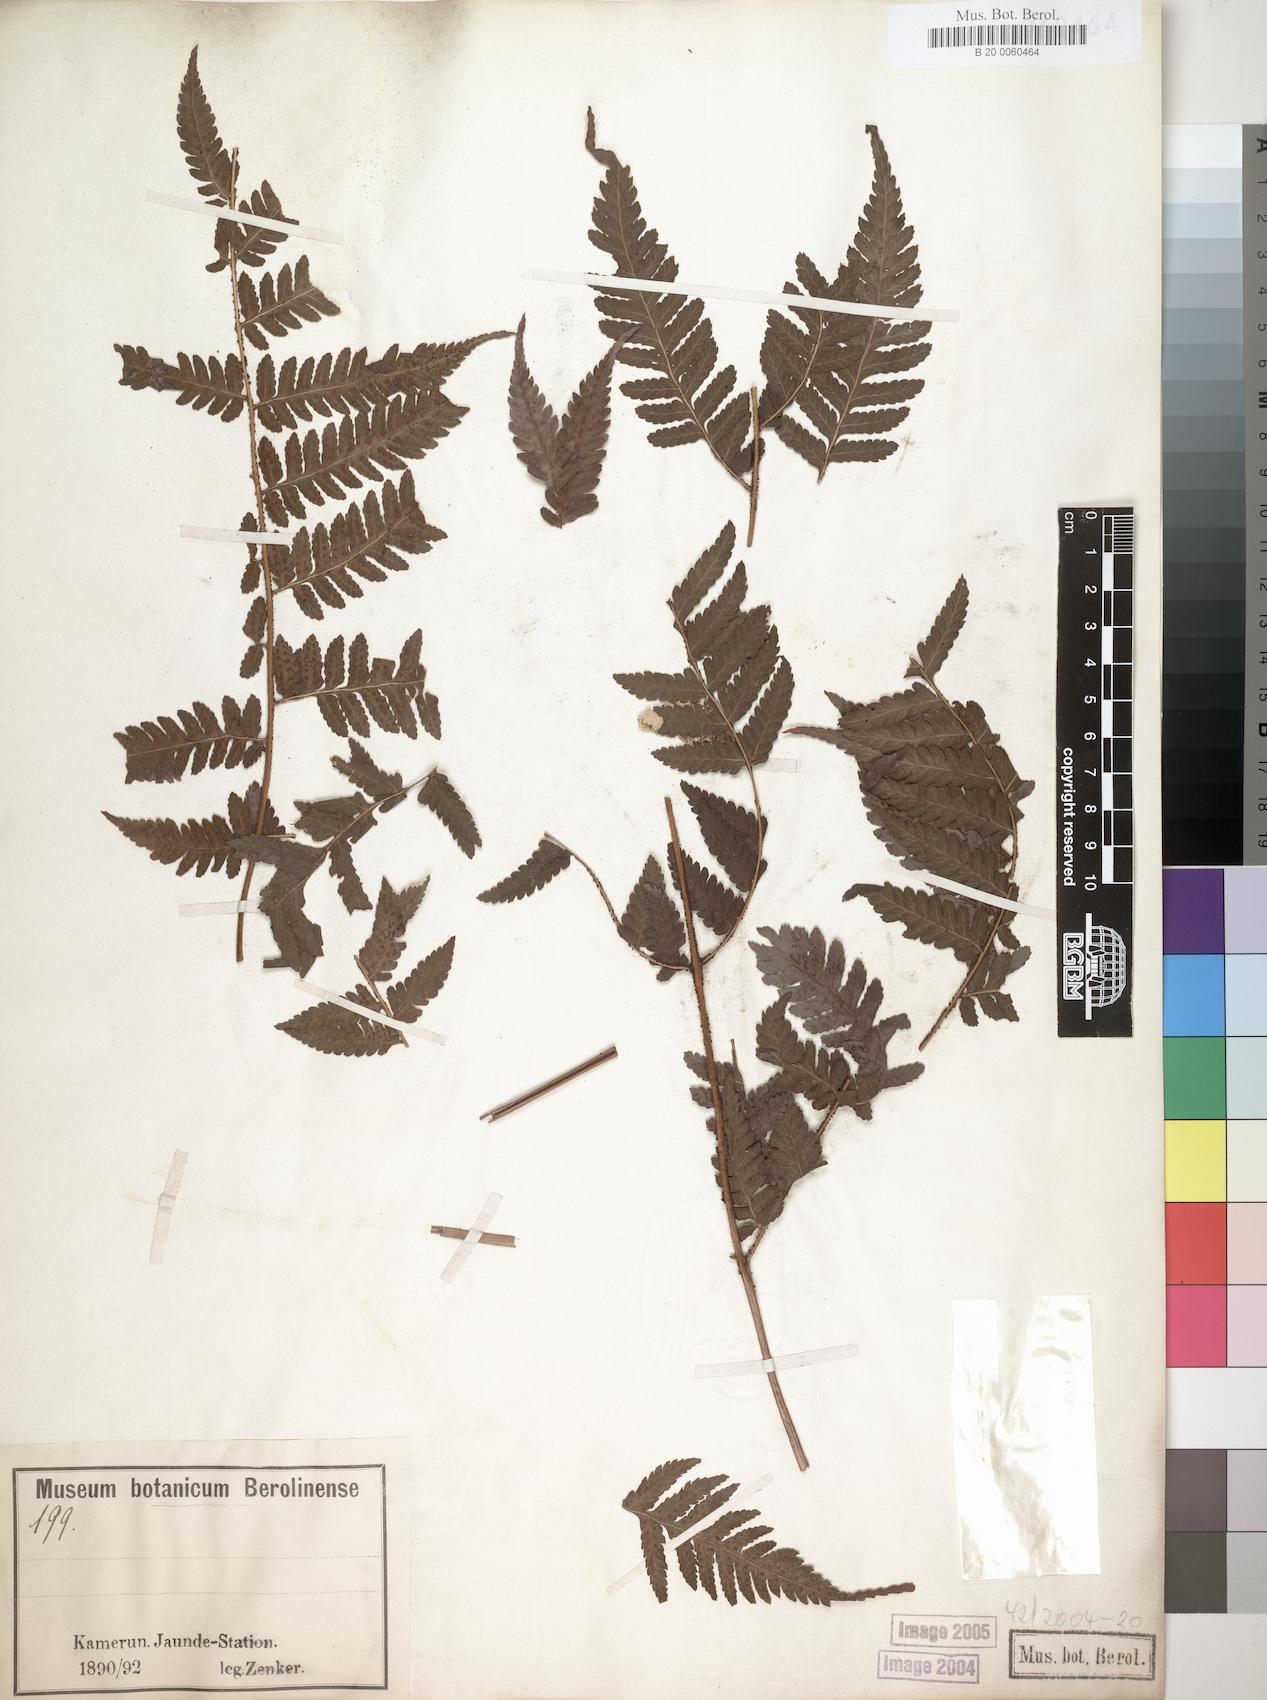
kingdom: Plantae
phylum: Tracheophyta
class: Polypodiopsida
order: Polypodiales
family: Dryopteridaceae
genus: Parapolystichum
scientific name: Parapolystichum nigritianum
